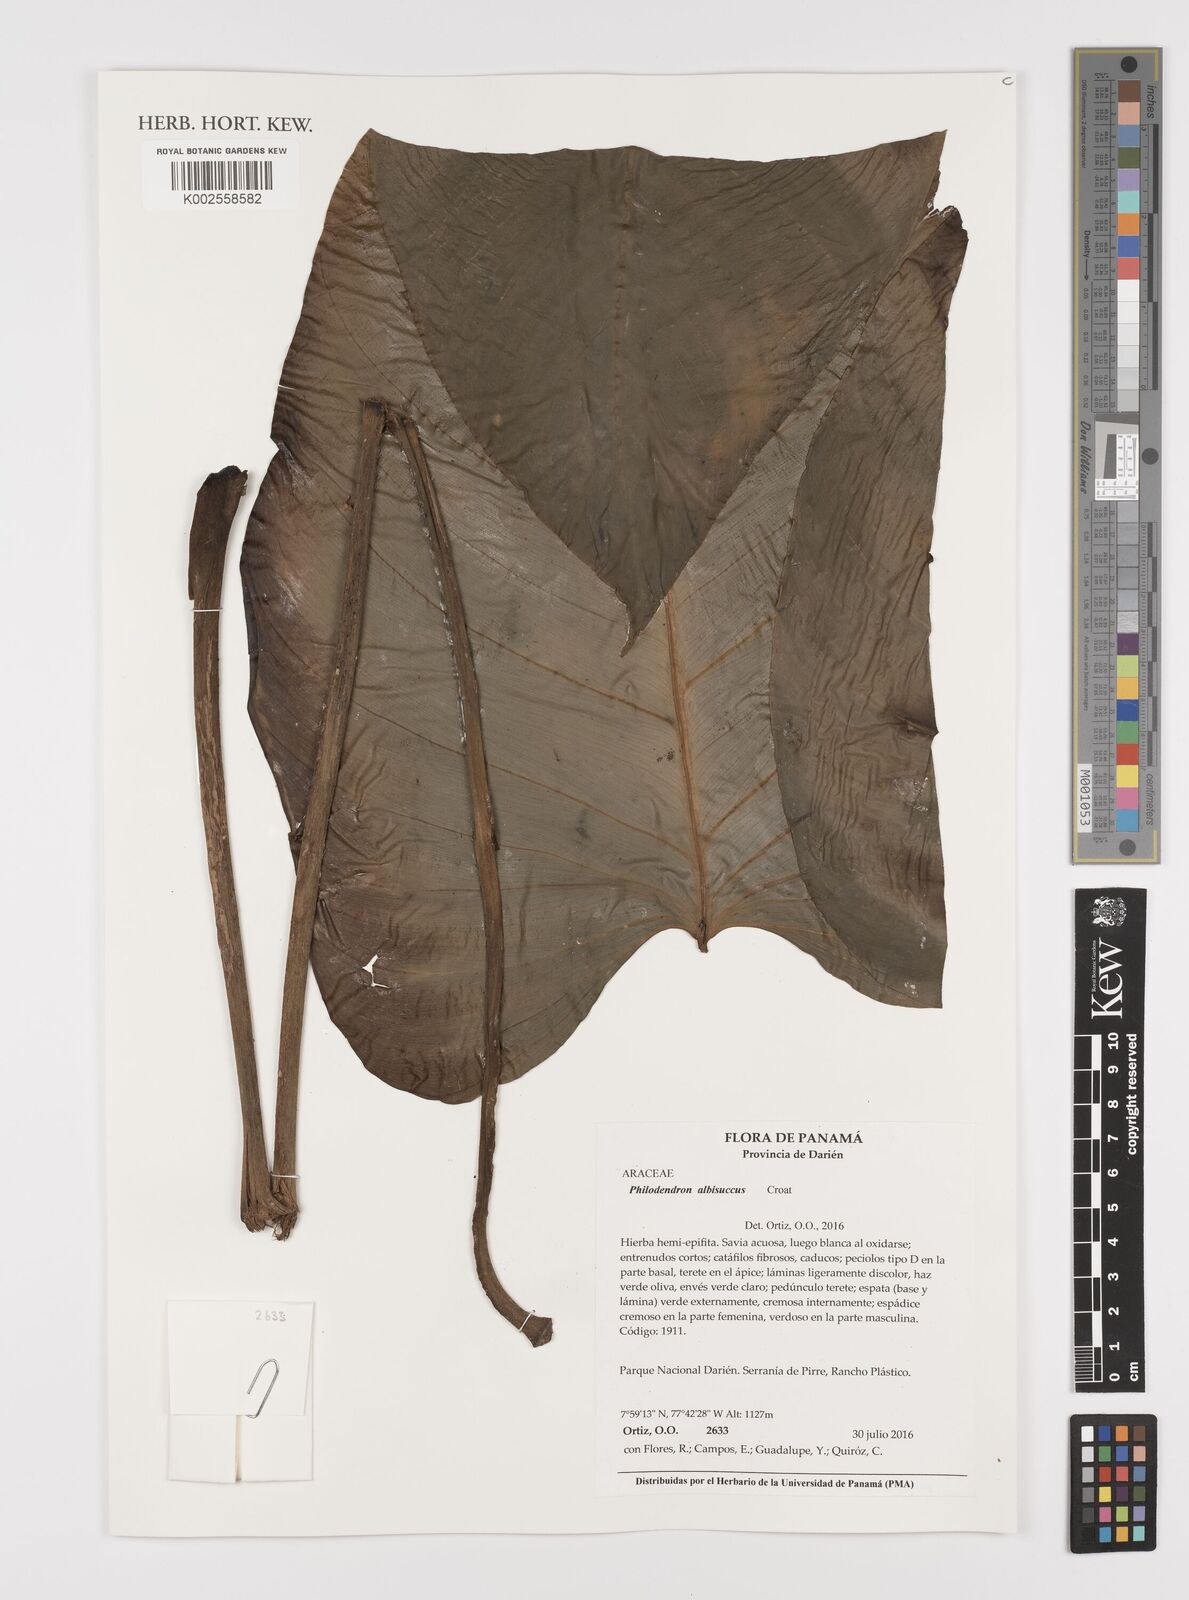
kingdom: Plantae
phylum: Tracheophyta
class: Liliopsida
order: Alismatales
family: Araceae
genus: Philodendron
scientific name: Philodendron albisuccus
